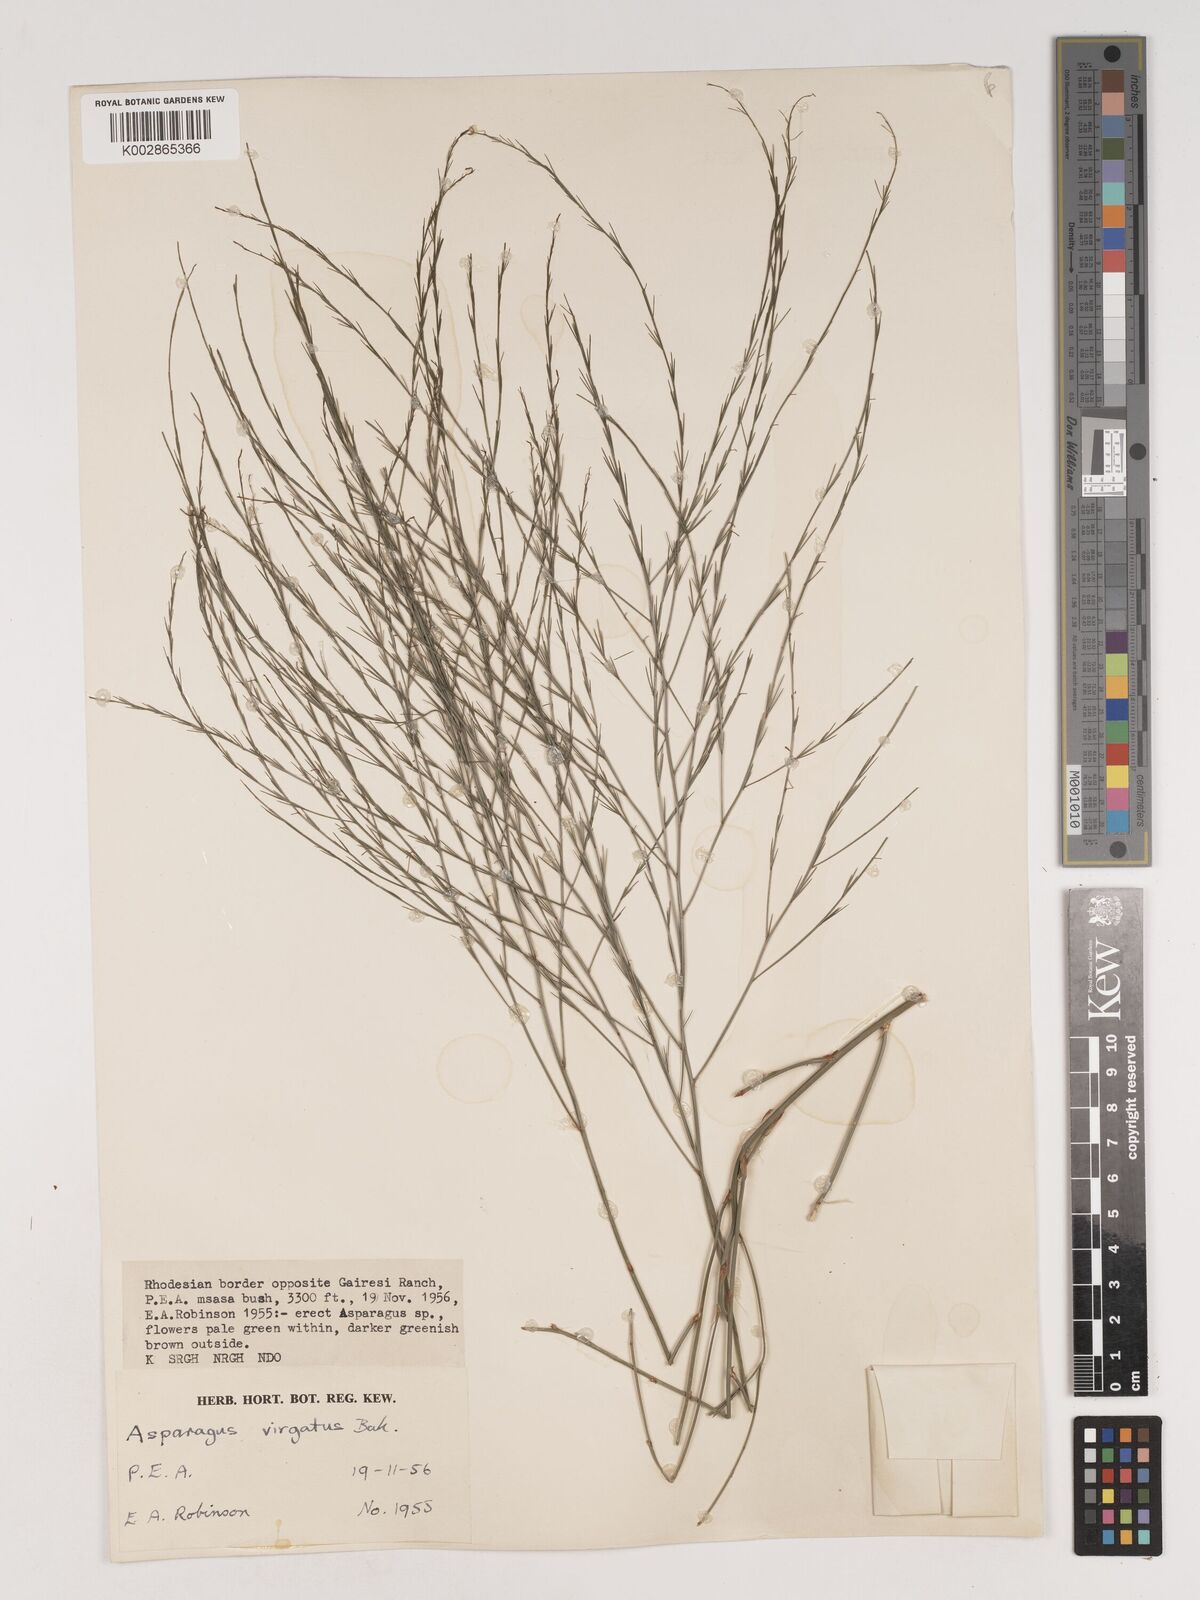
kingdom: Plantae
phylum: Tracheophyta
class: Liliopsida
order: Asparagales
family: Asparagaceae
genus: Asparagus
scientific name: Asparagus virgatus
